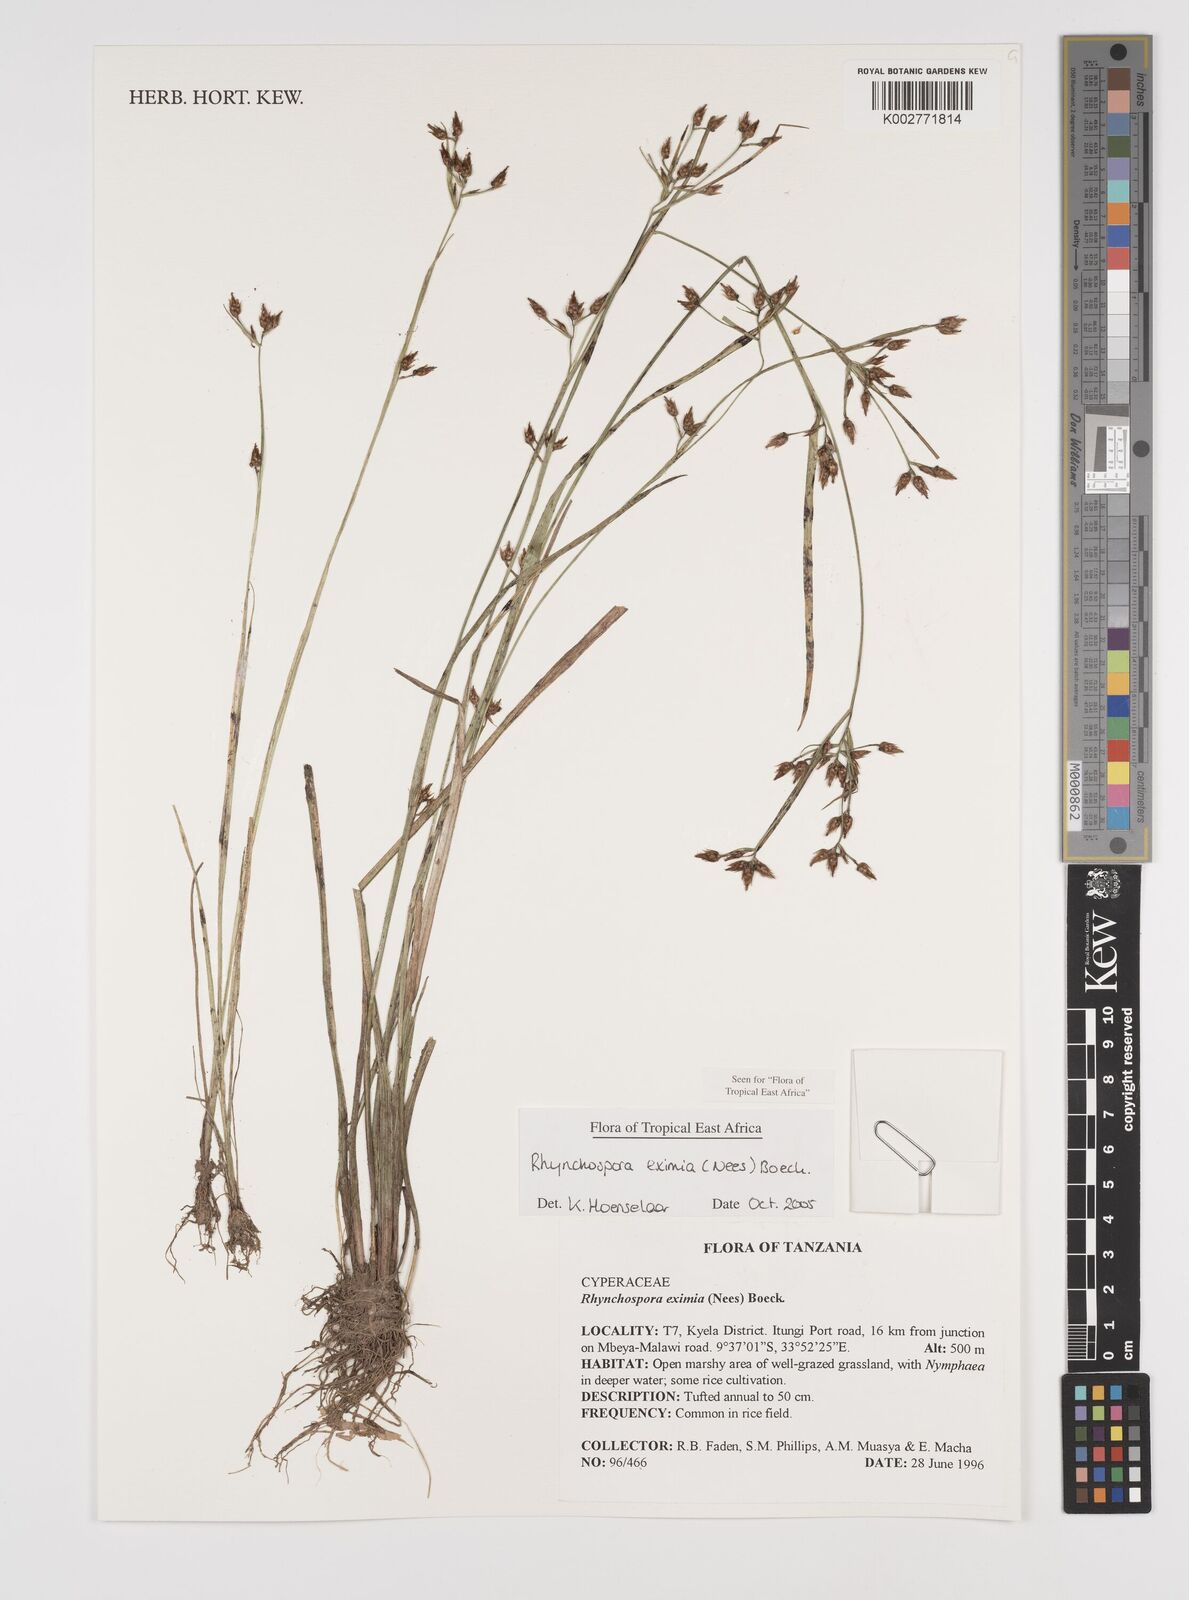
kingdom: Plantae
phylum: Tracheophyta
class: Liliopsida
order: Poales
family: Cyperaceae
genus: Rhynchospora
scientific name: Rhynchospora eximia
